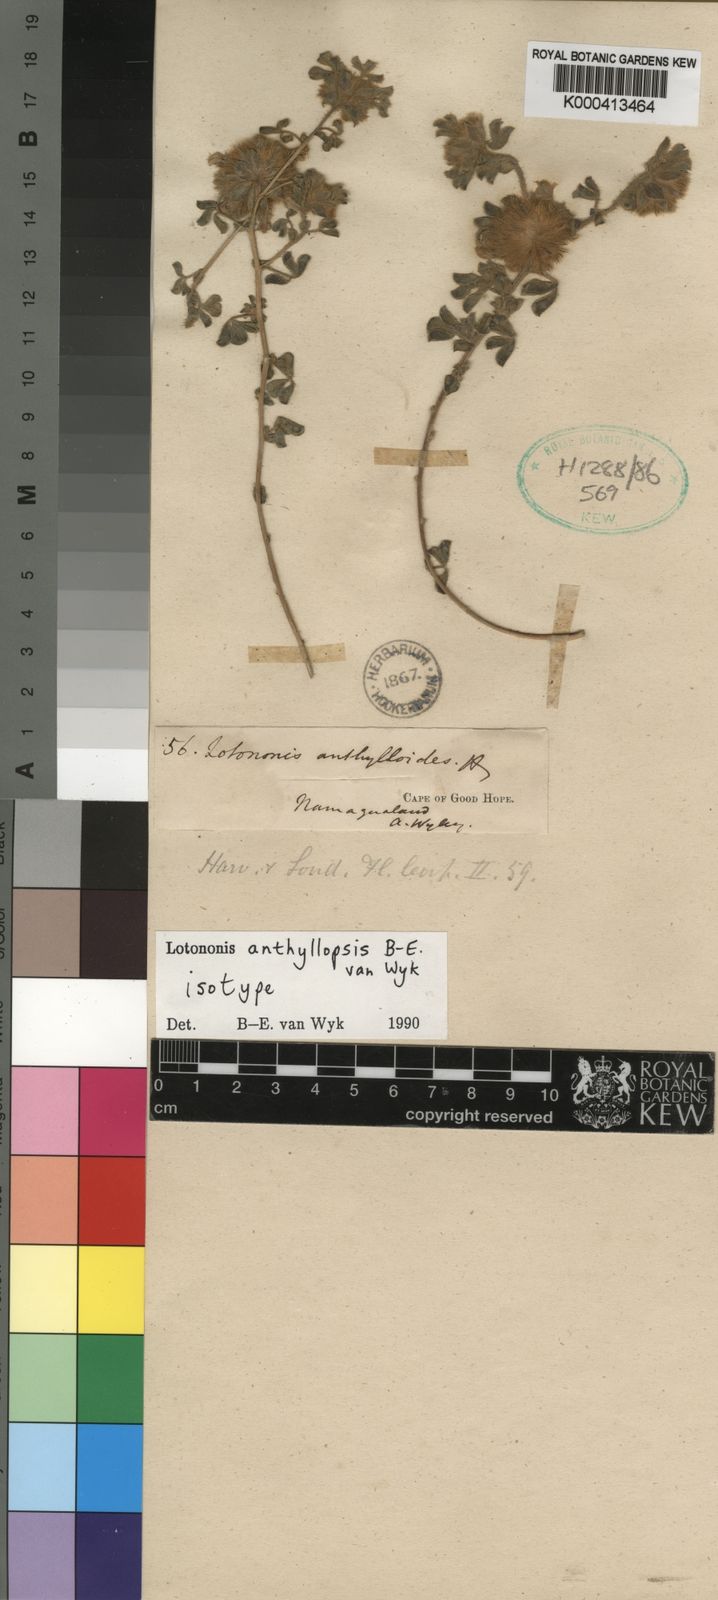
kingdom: Plantae
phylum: Tracheophyta
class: Magnoliopsida
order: Fabales
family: Fabaceae
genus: Lotononis
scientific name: Lotononis anthyllopsis
